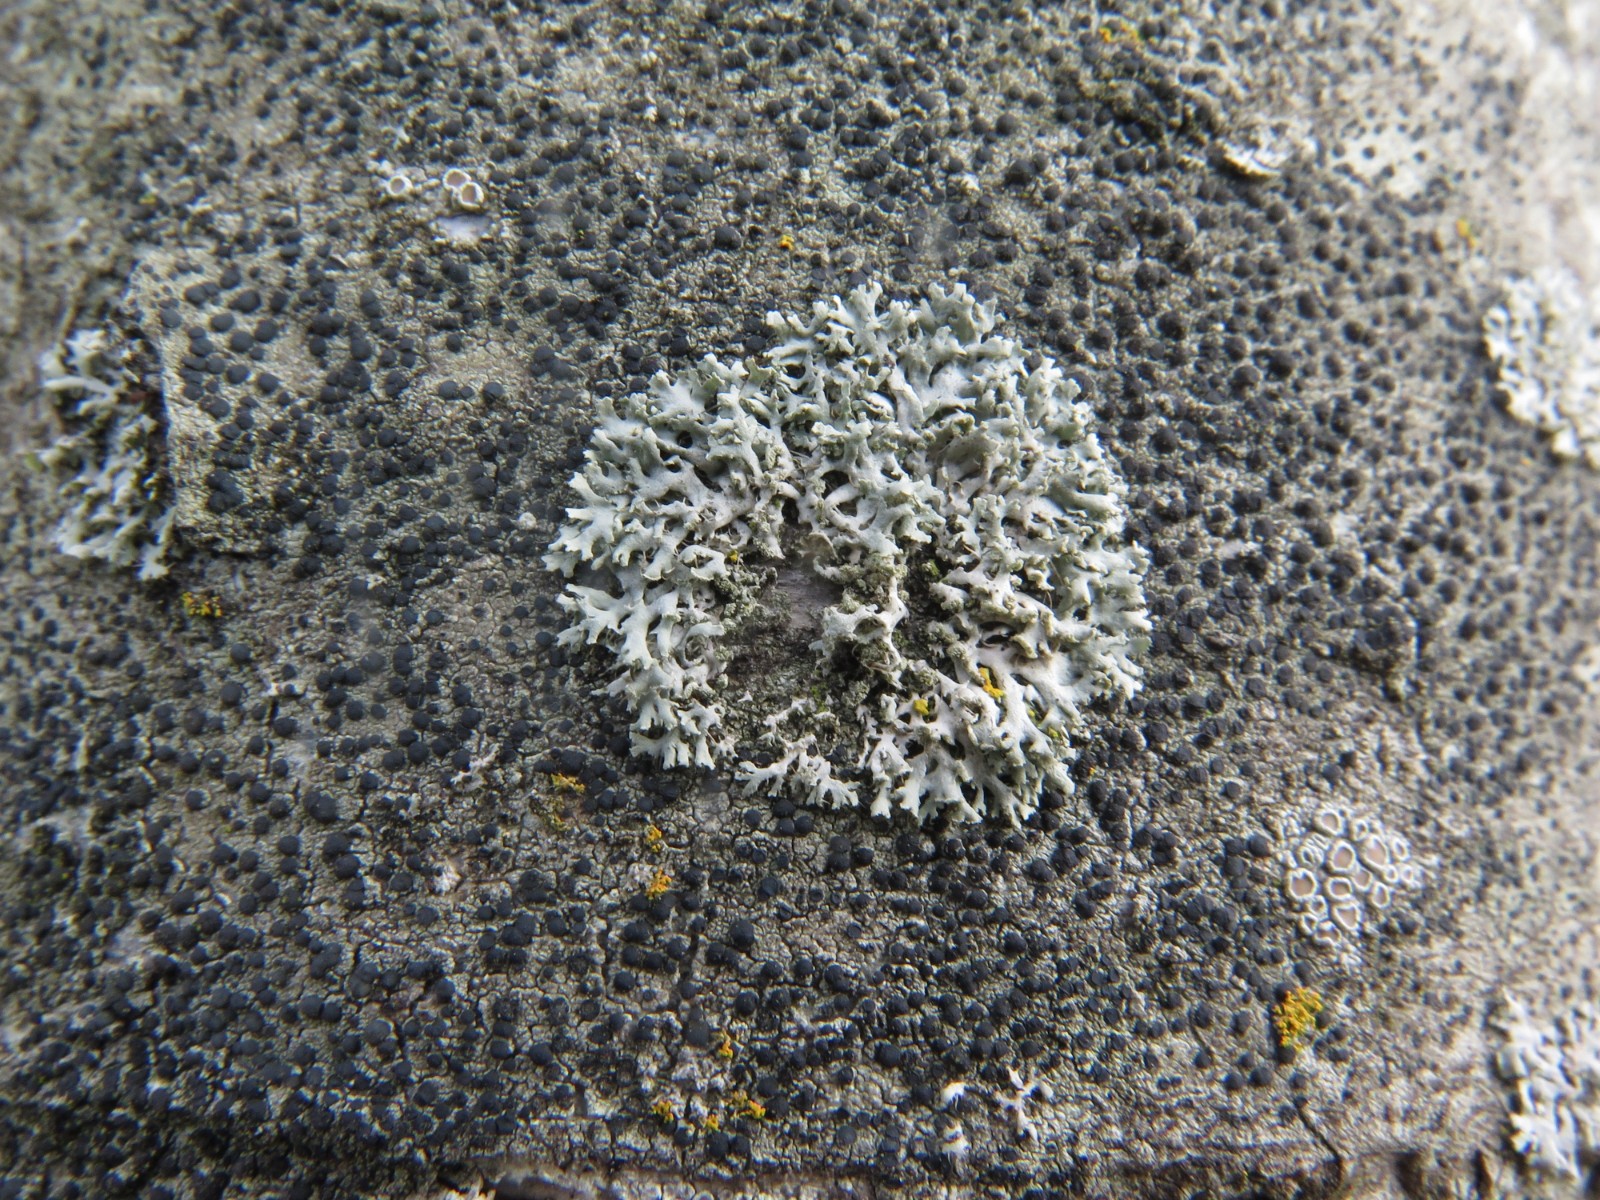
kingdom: Fungi
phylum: Ascomycota
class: Lecanoromycetes
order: Caliciales
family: Physciaceae
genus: Physcia
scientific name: Physcia tenella
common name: spæd rosetlav
